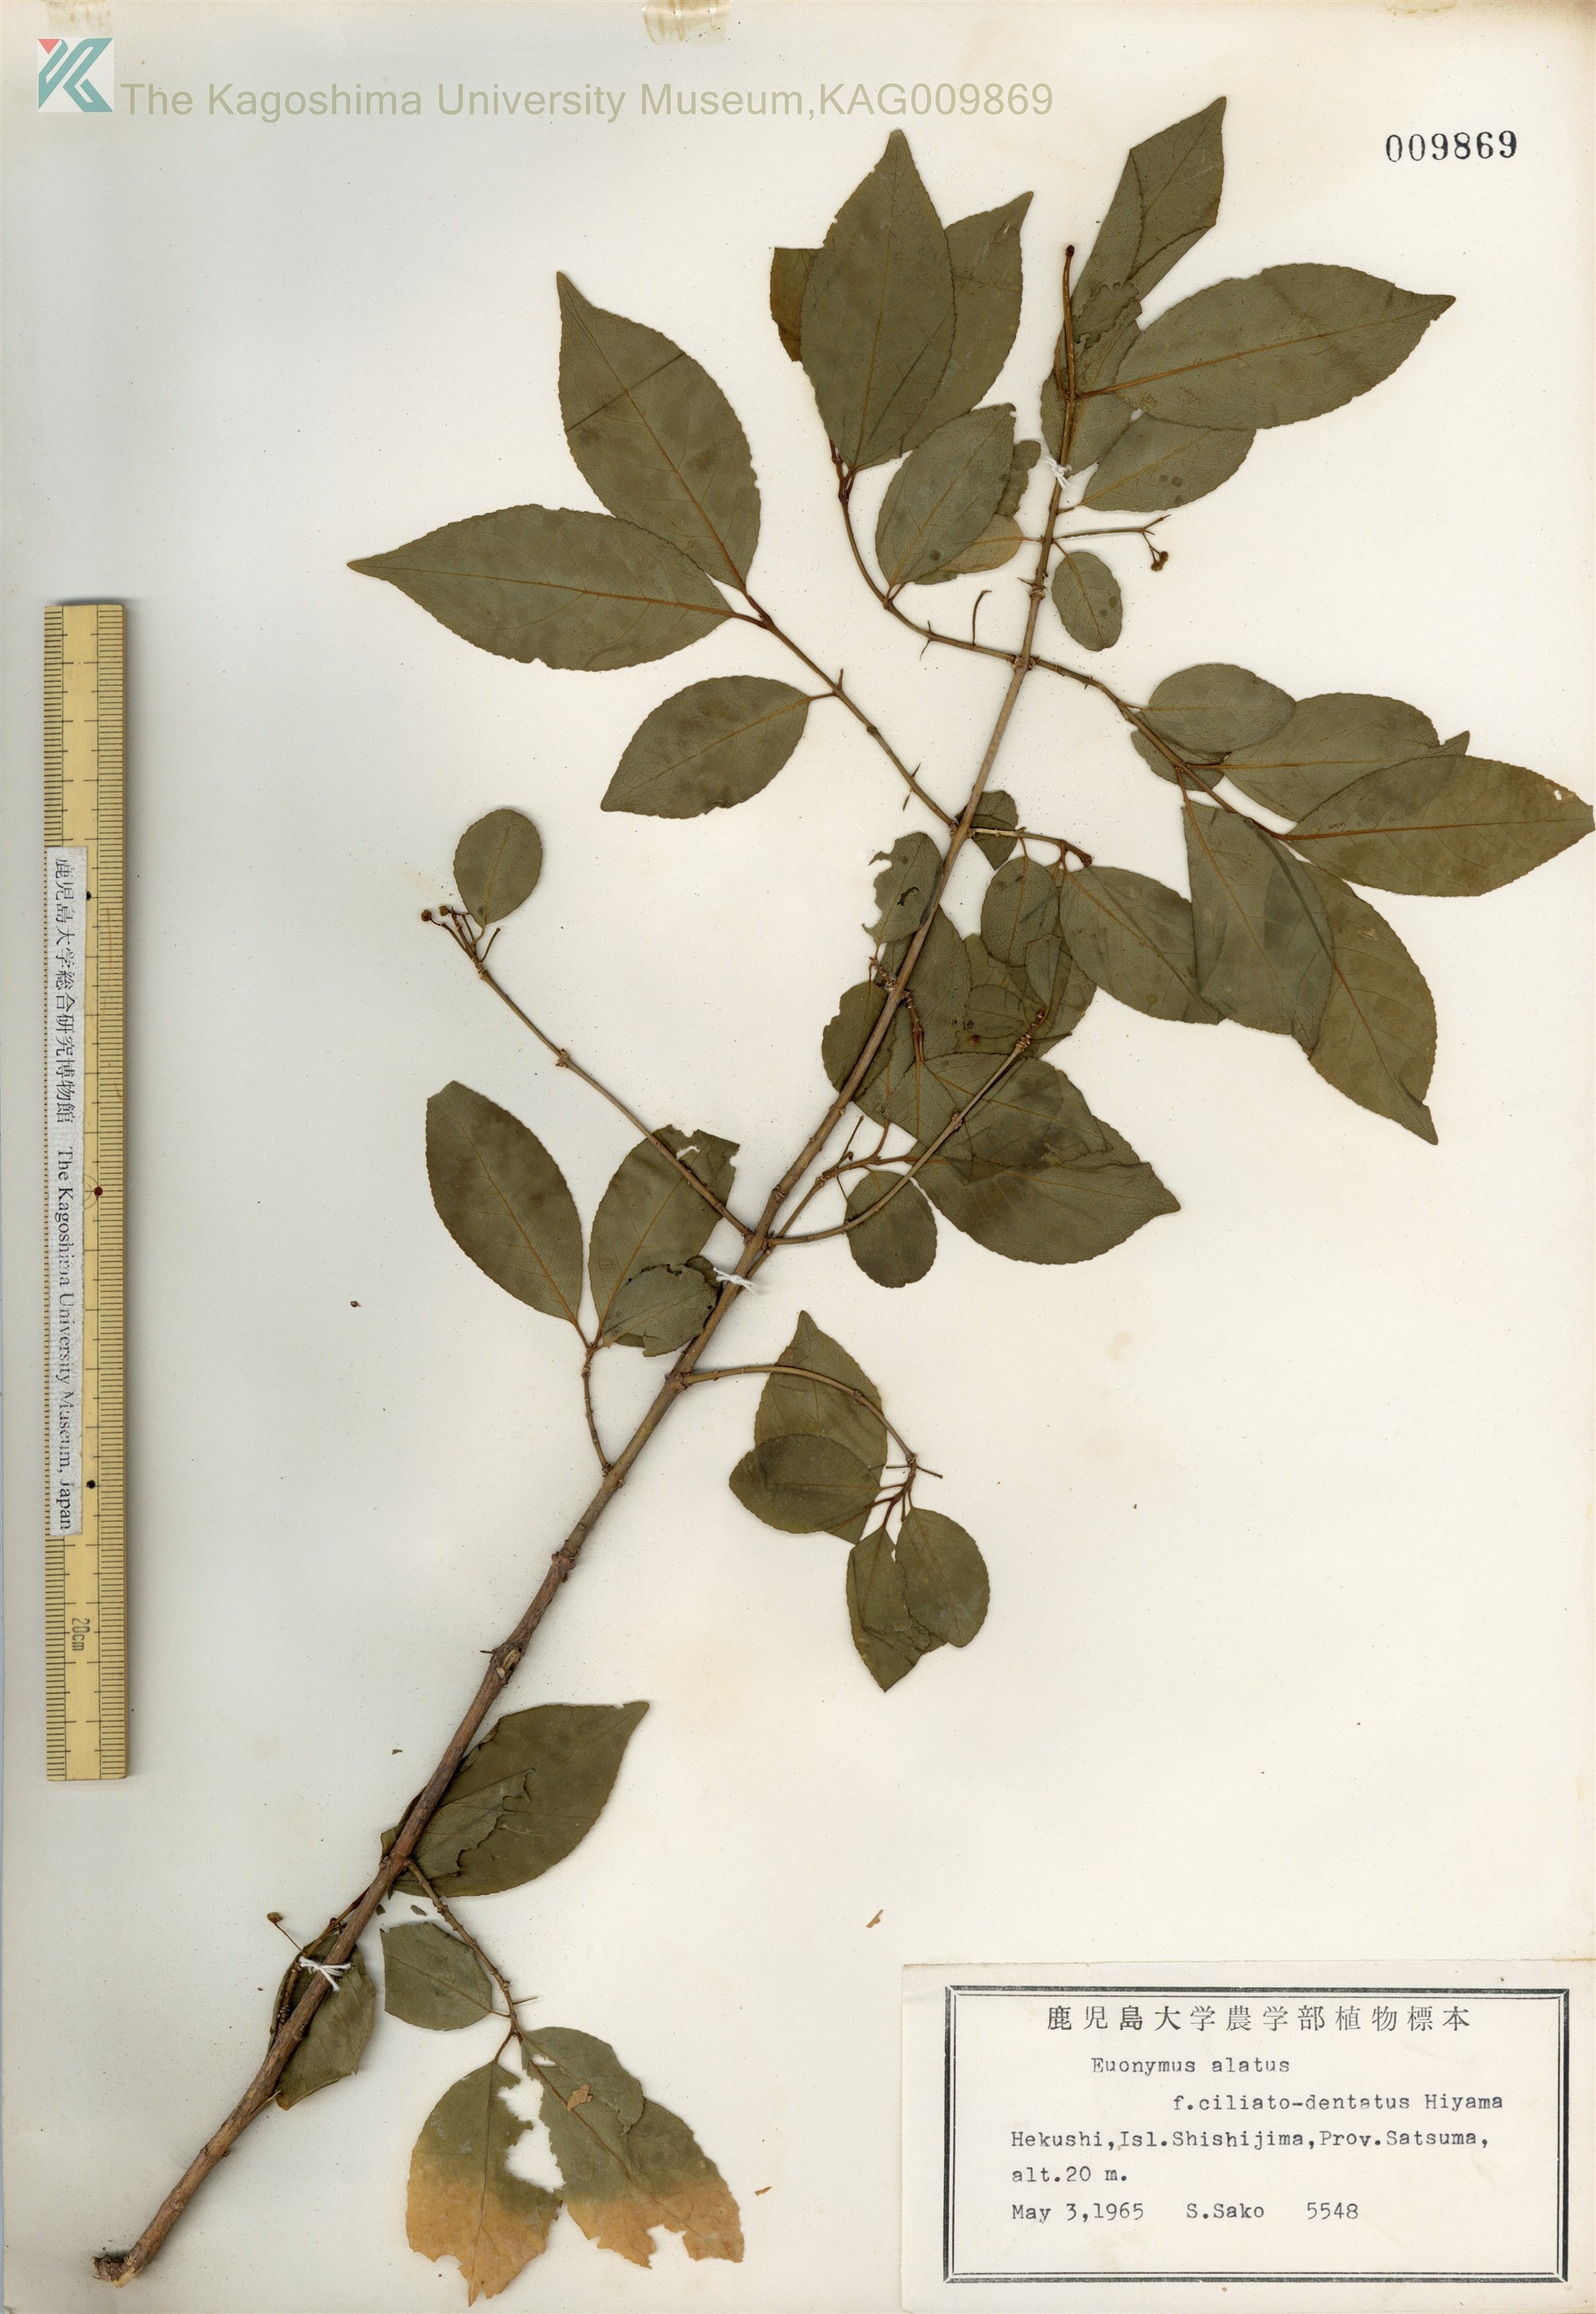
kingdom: Plantae
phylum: Tracheophyta
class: Magnoliopsida
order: Celastrales
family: Celastraceae
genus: Euonymus
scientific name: Euonymus hamiltonianus
